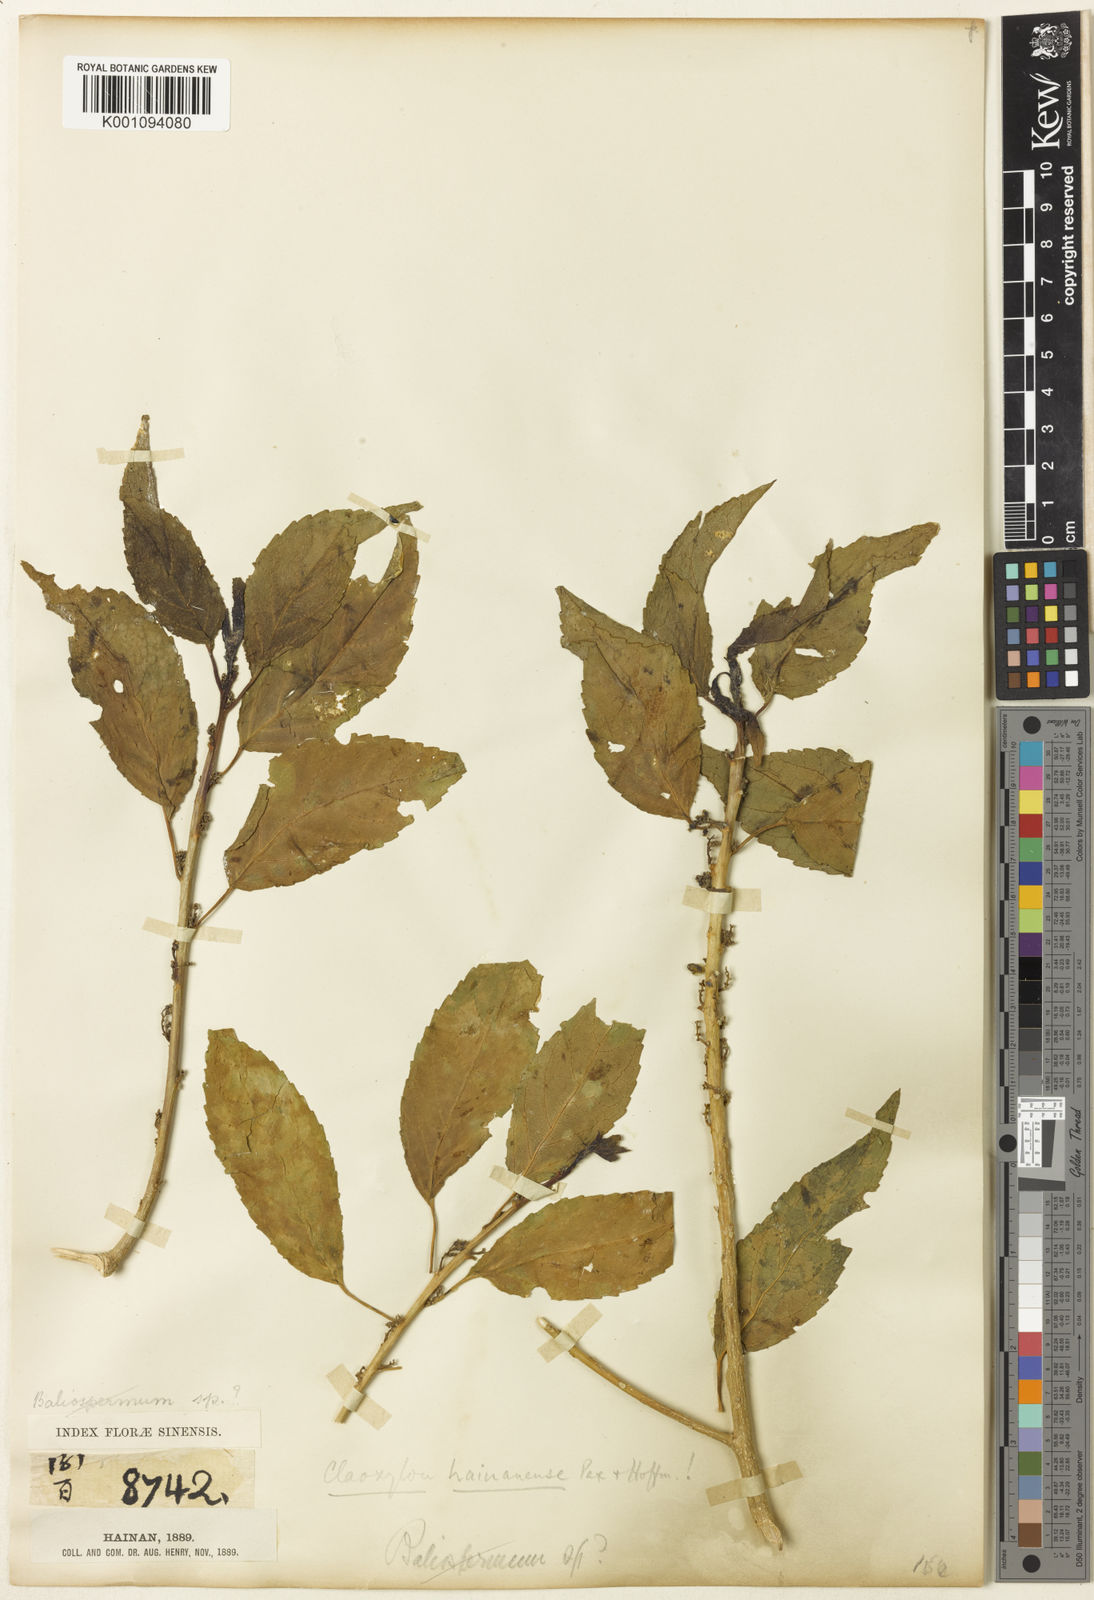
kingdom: Plantae
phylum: Tracheophyta
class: Magnoliopsida
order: Malpighiales
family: Euphorbiaceae
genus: Claoxylon
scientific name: Claoxylon hainanense
